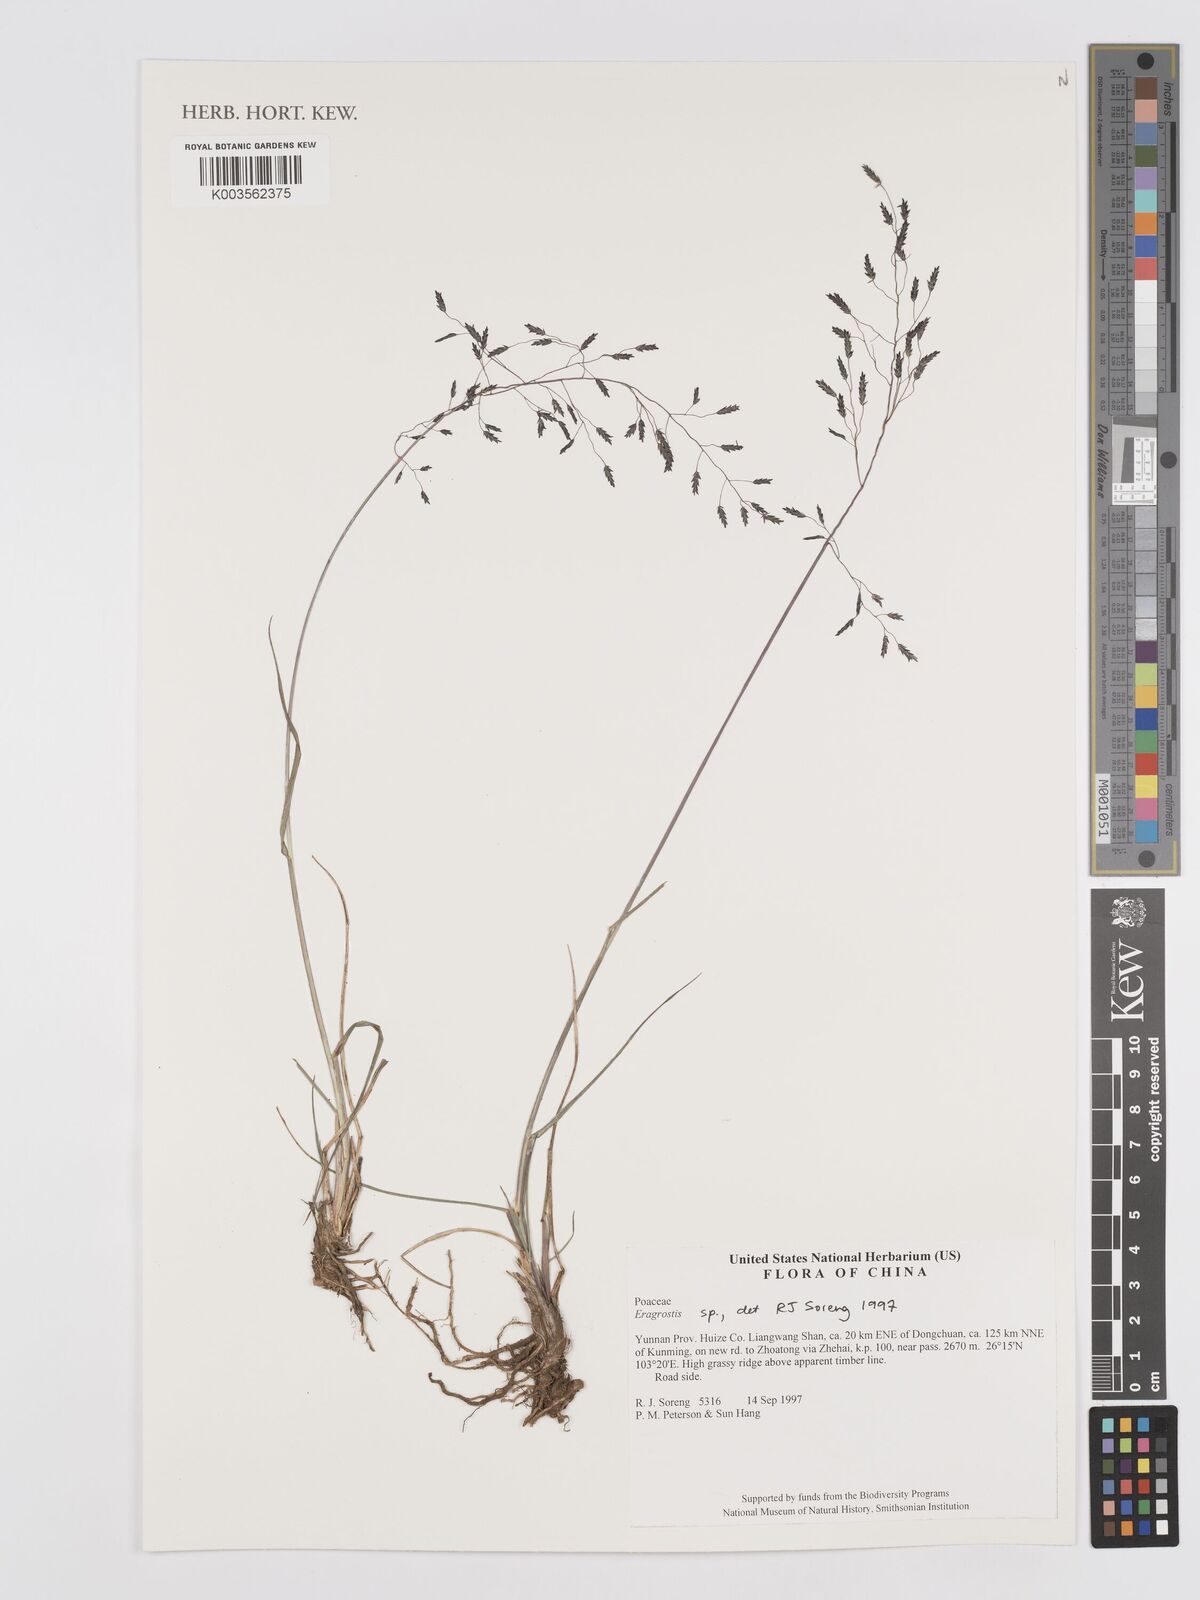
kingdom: Plantae
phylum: Tracheophyta
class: Liliopsida
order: Poales
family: Poaceae
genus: Eragrostis
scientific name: Eragrostis
